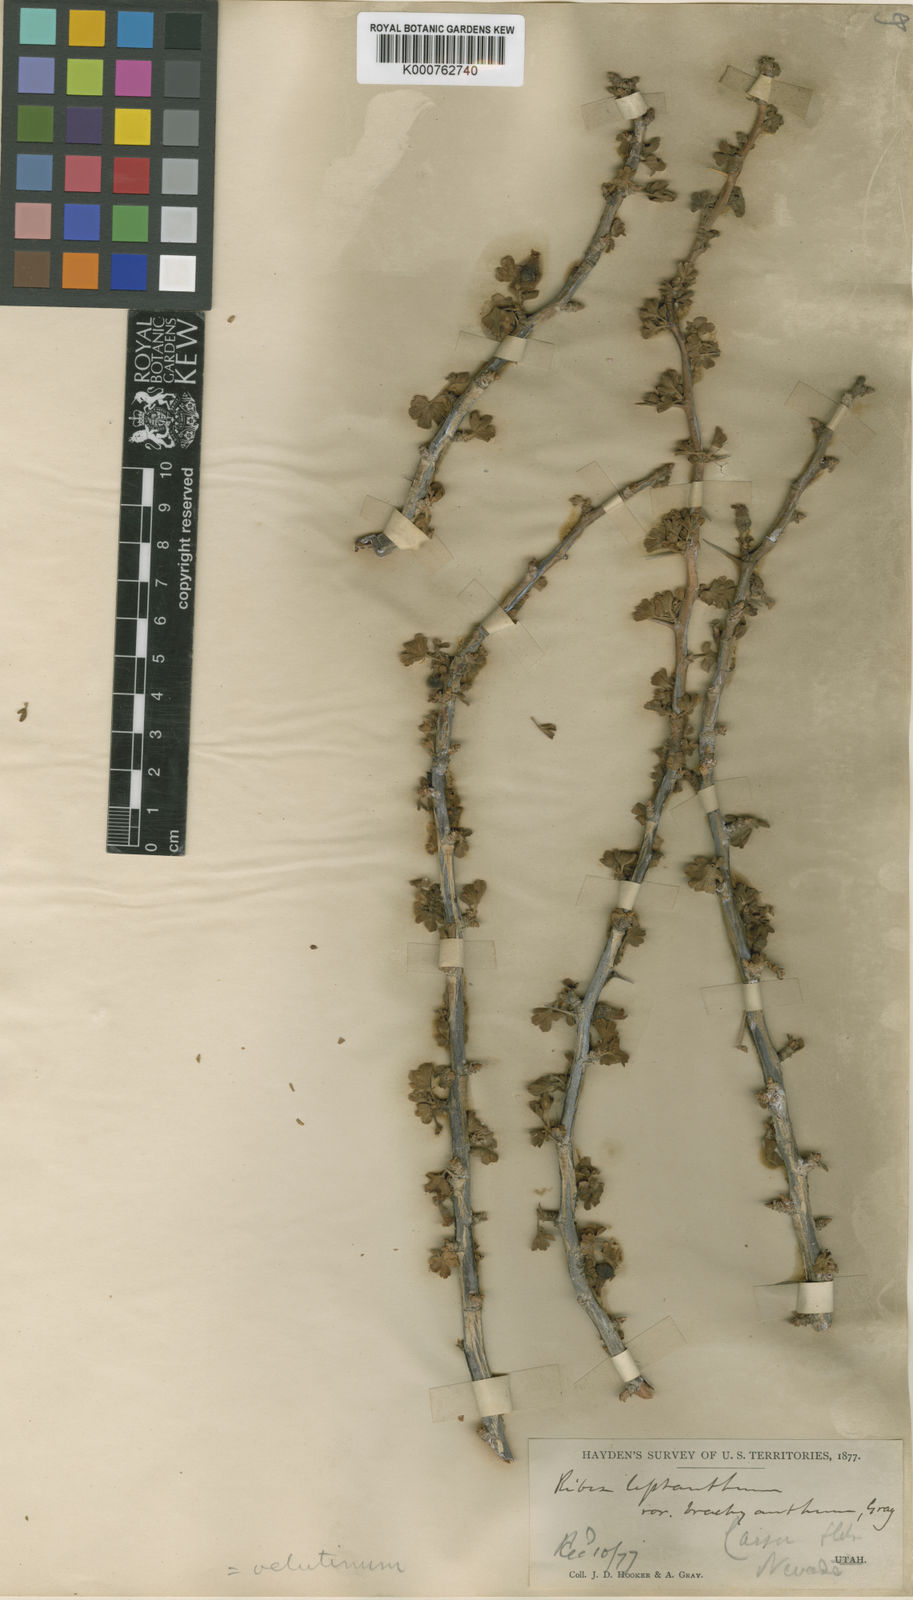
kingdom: Plantae
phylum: Tracheophyta
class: Magnoliopsida
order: Saxifragales
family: Grossulariaceae
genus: Ribes
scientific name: Ribes velutinum
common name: Desert gooseberry
